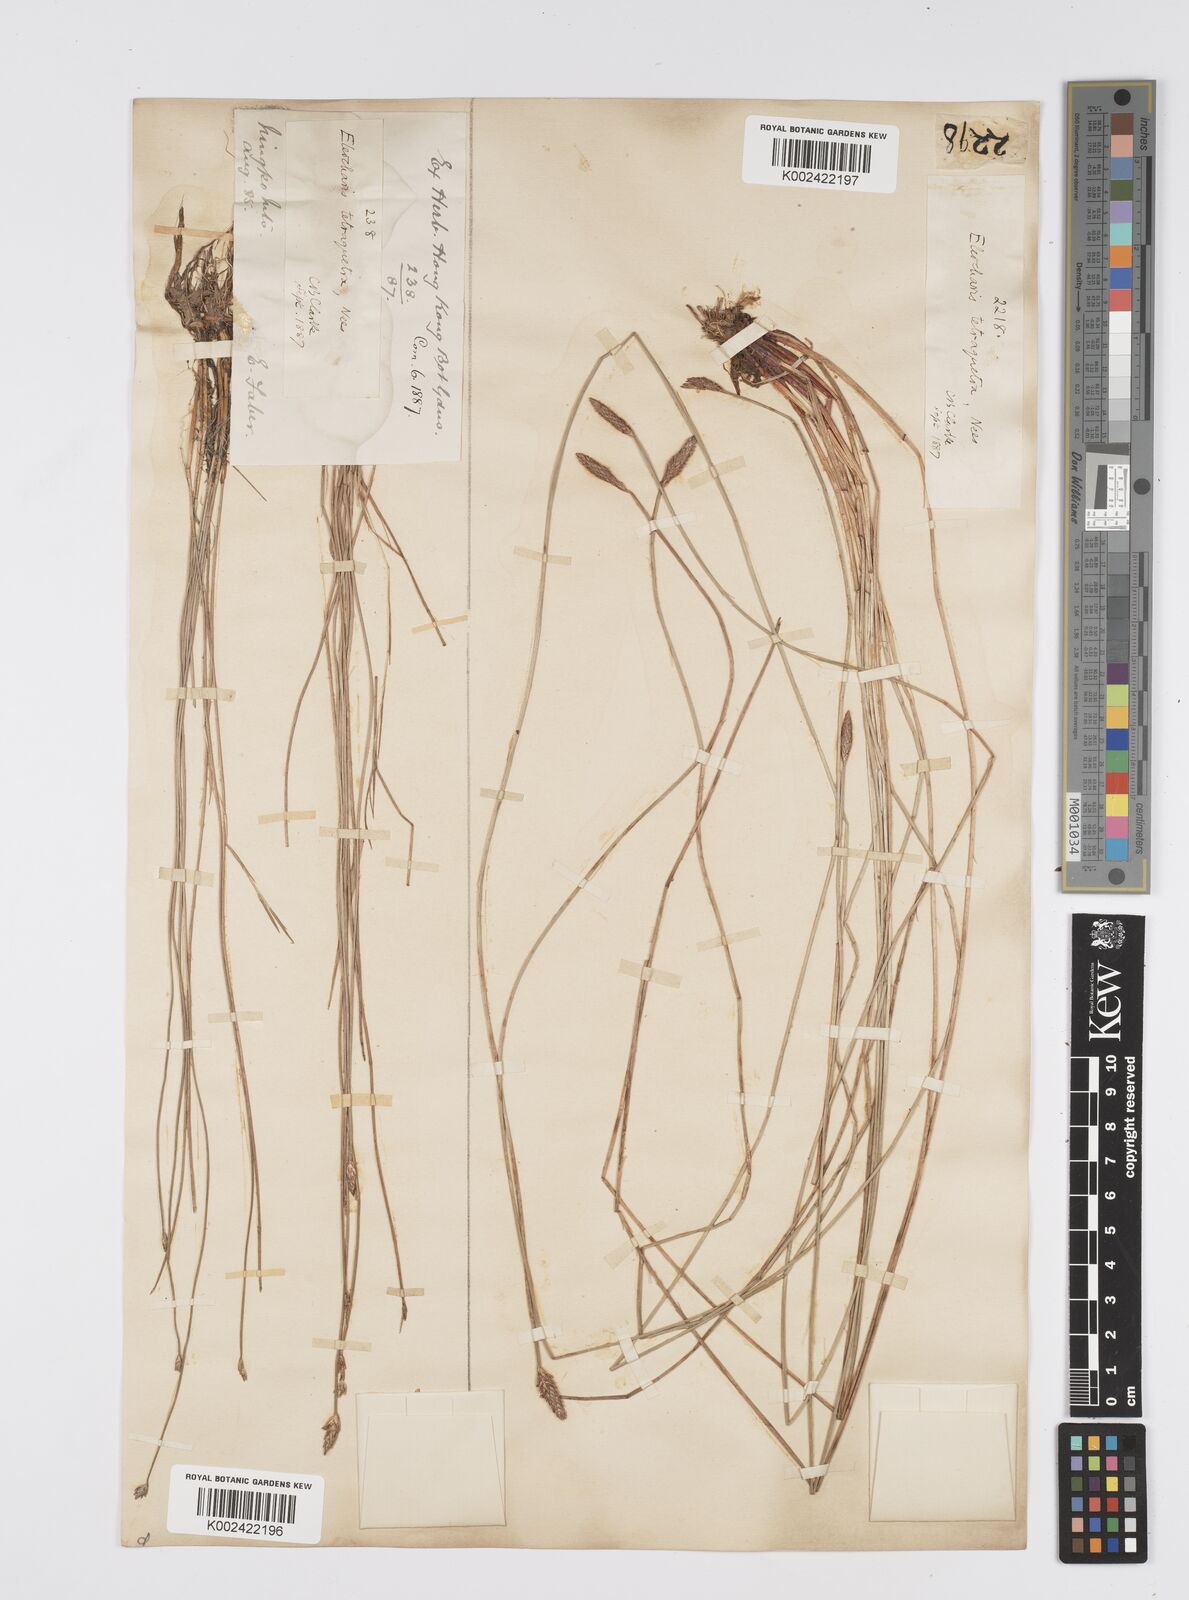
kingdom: Plantae
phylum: Tracheophyta
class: Liliopsida
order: Poales
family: Cyperaceae
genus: Eleocharis
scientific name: Eleocharis tetraquetra
